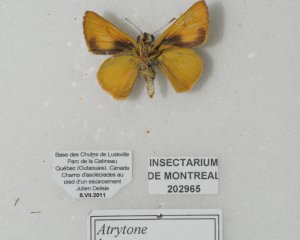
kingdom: Animalia
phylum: Arthropoda
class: Insecta
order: Lepidoptera
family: Hesperiidae
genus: Atrytone
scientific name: Atrytone delaware
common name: Delaware Skipper
